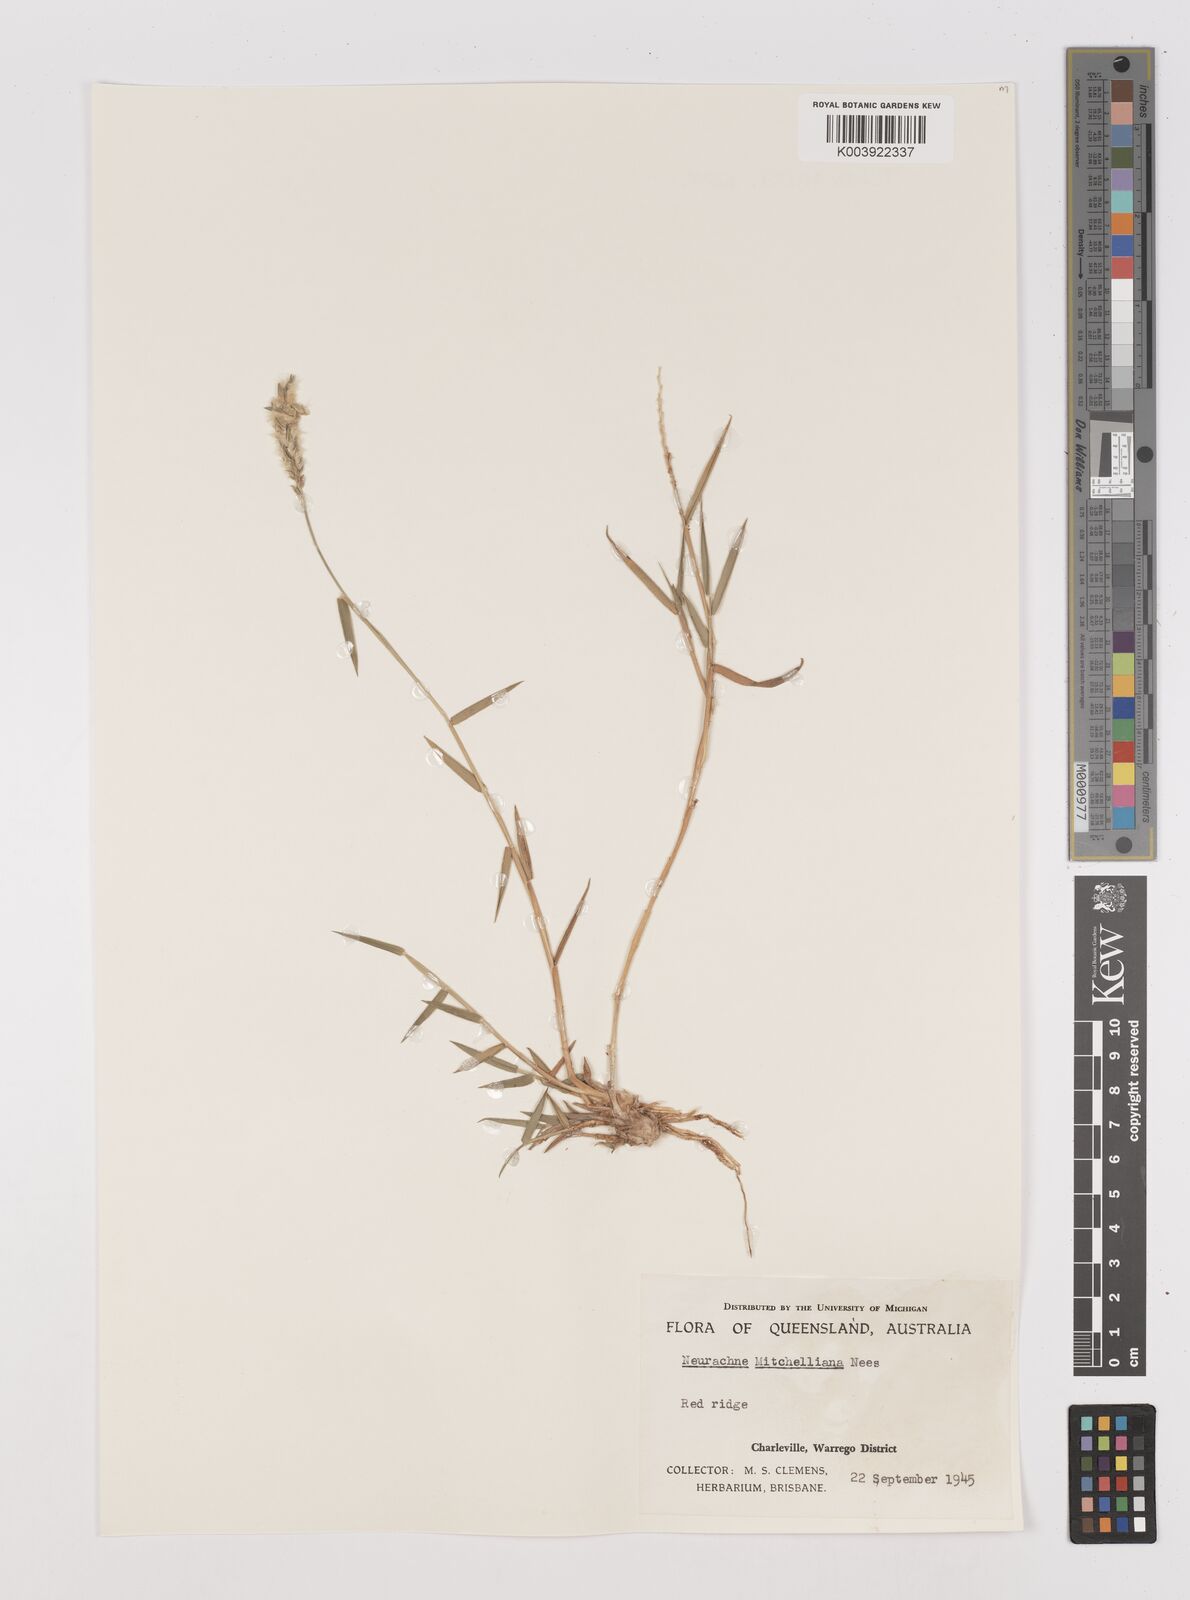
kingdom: Plantae
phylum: Tracheophyta
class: Liliopsida
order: Poales
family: Poaceae
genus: Thyridolepis
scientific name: Thyridolepis mitchelliana
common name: Rock tassel grass
